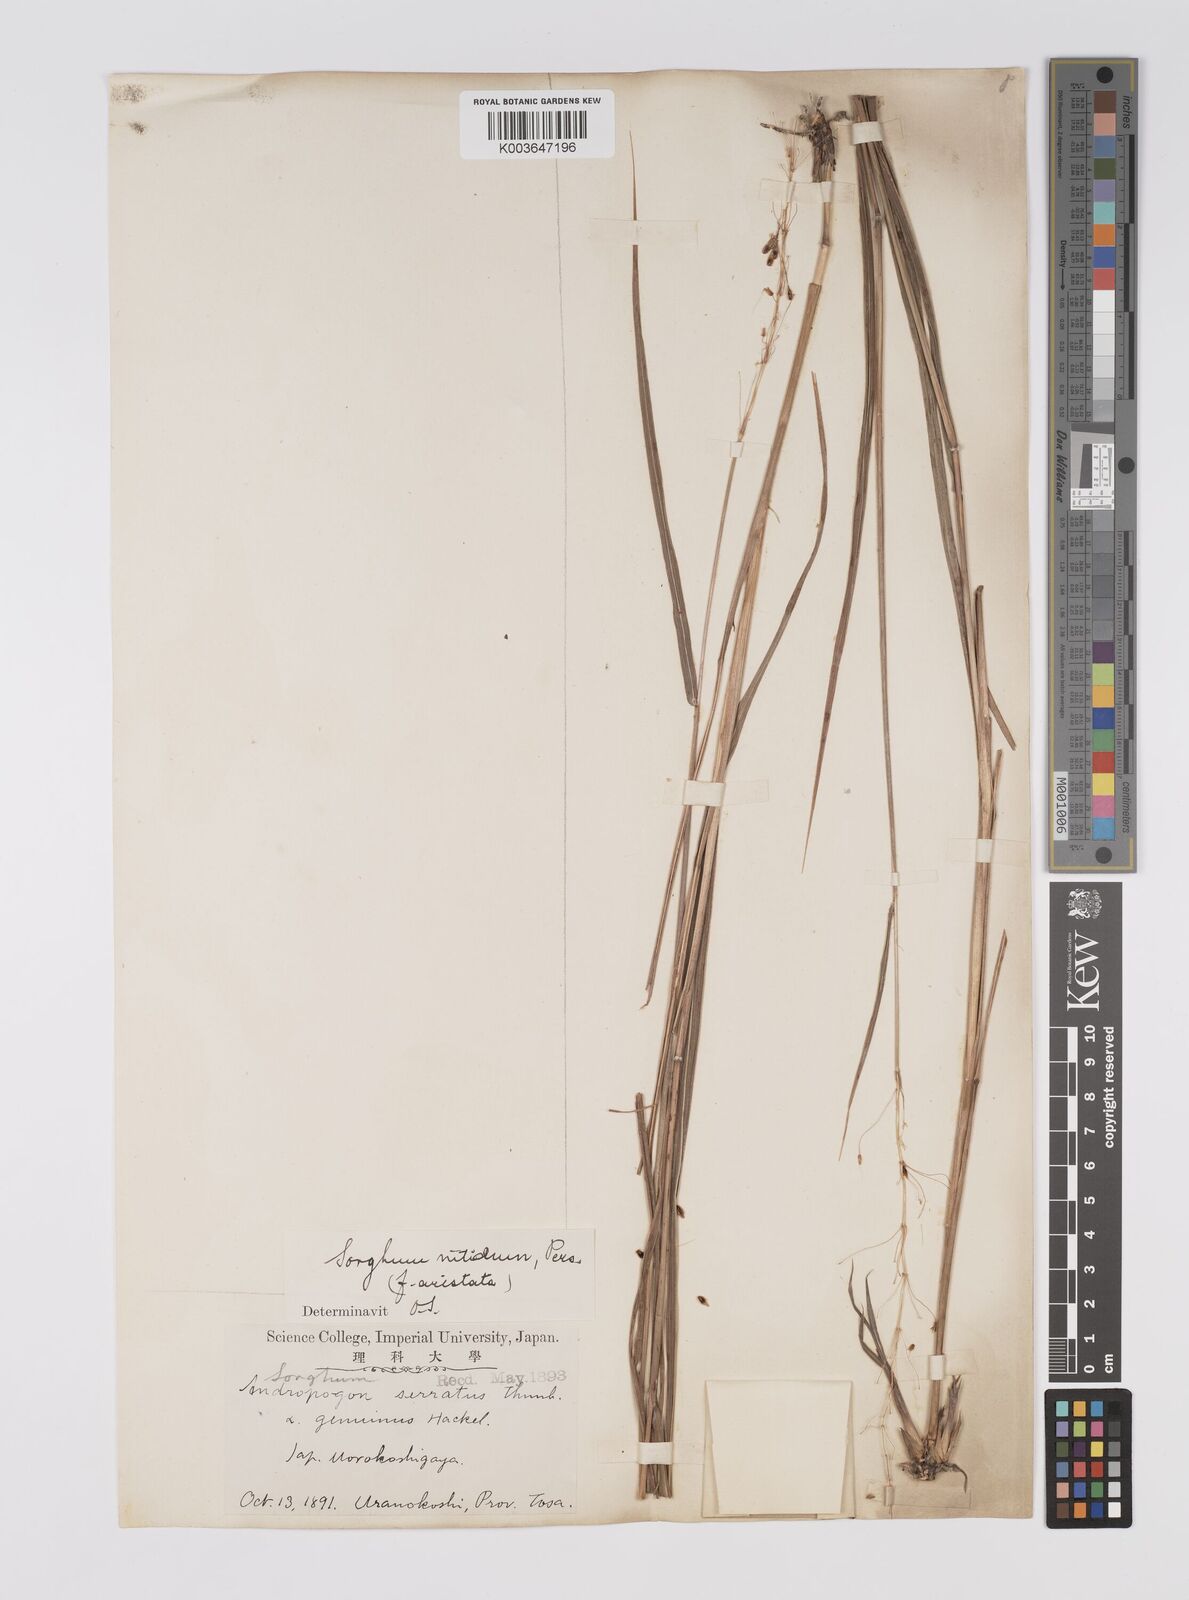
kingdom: Plantae
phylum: Tracheophyta
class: Liliopsida
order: Poales
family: Poaceae
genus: Sorghum
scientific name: Sorghum nitidum
